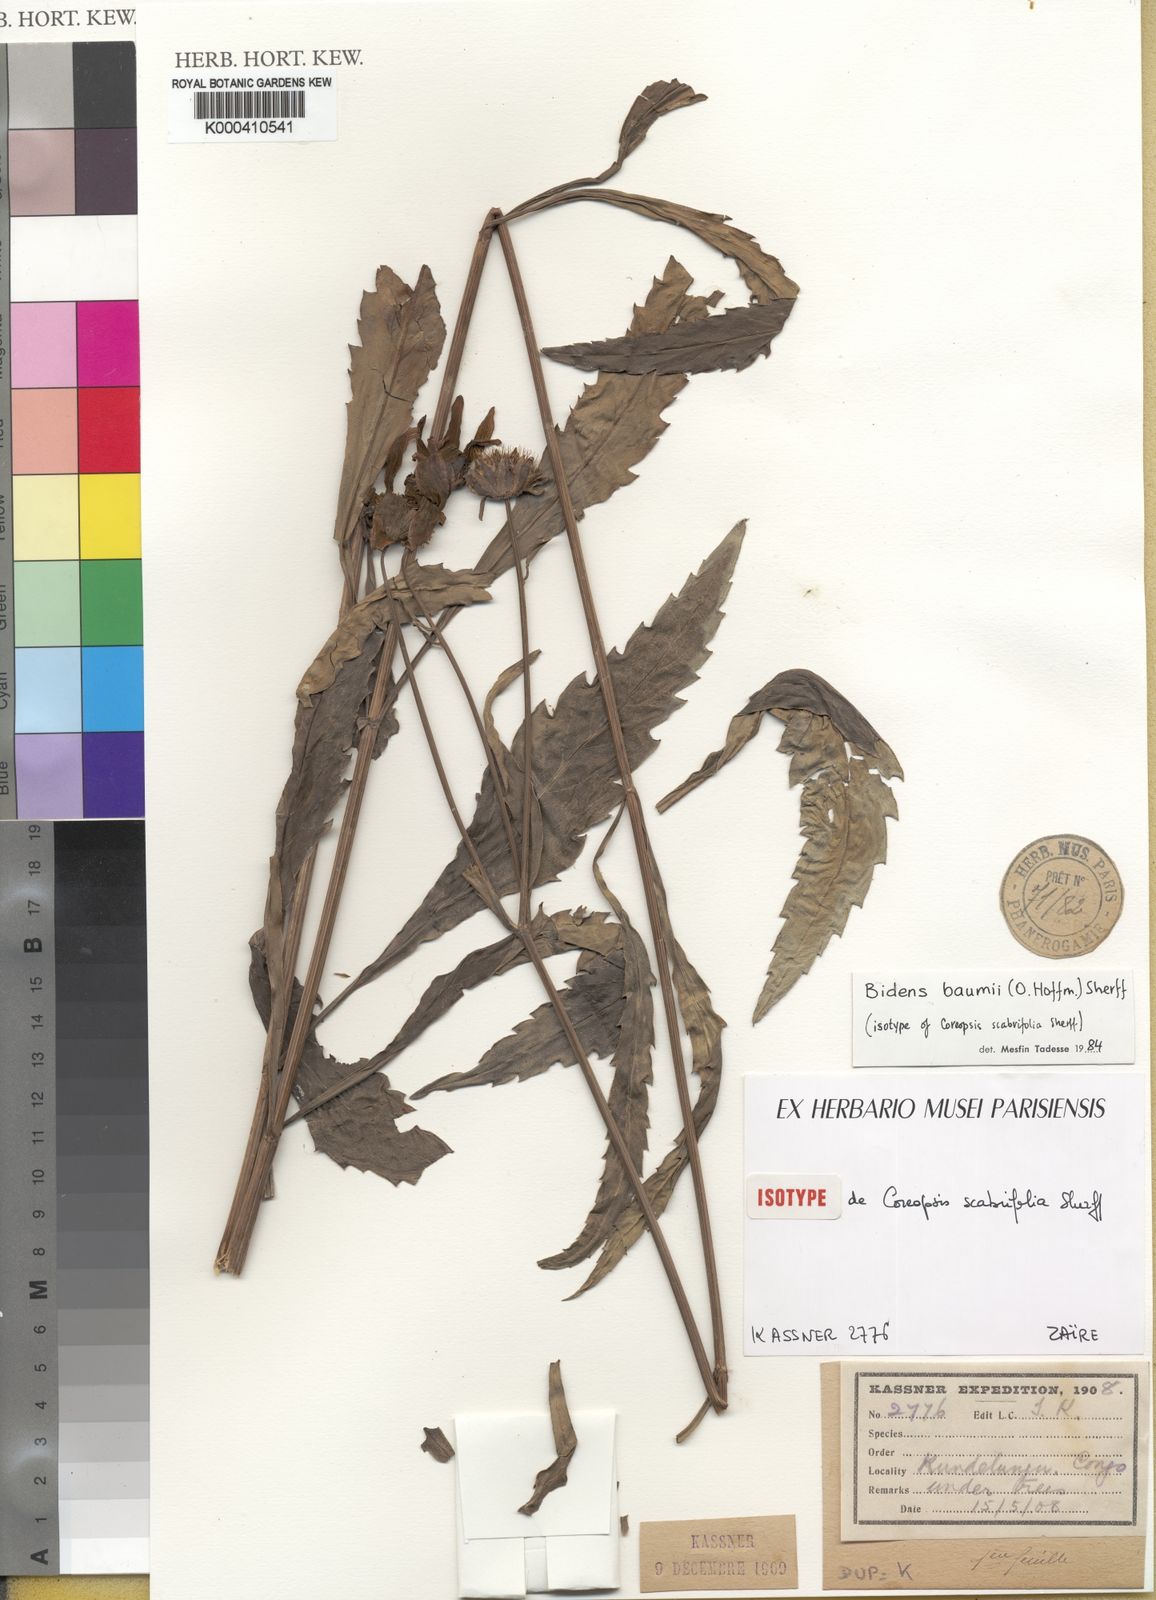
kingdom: Plantae
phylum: Tracheophyta
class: Magnoliopsida
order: Asterales
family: Asteraceae
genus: Bidens
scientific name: Bidens baumii
